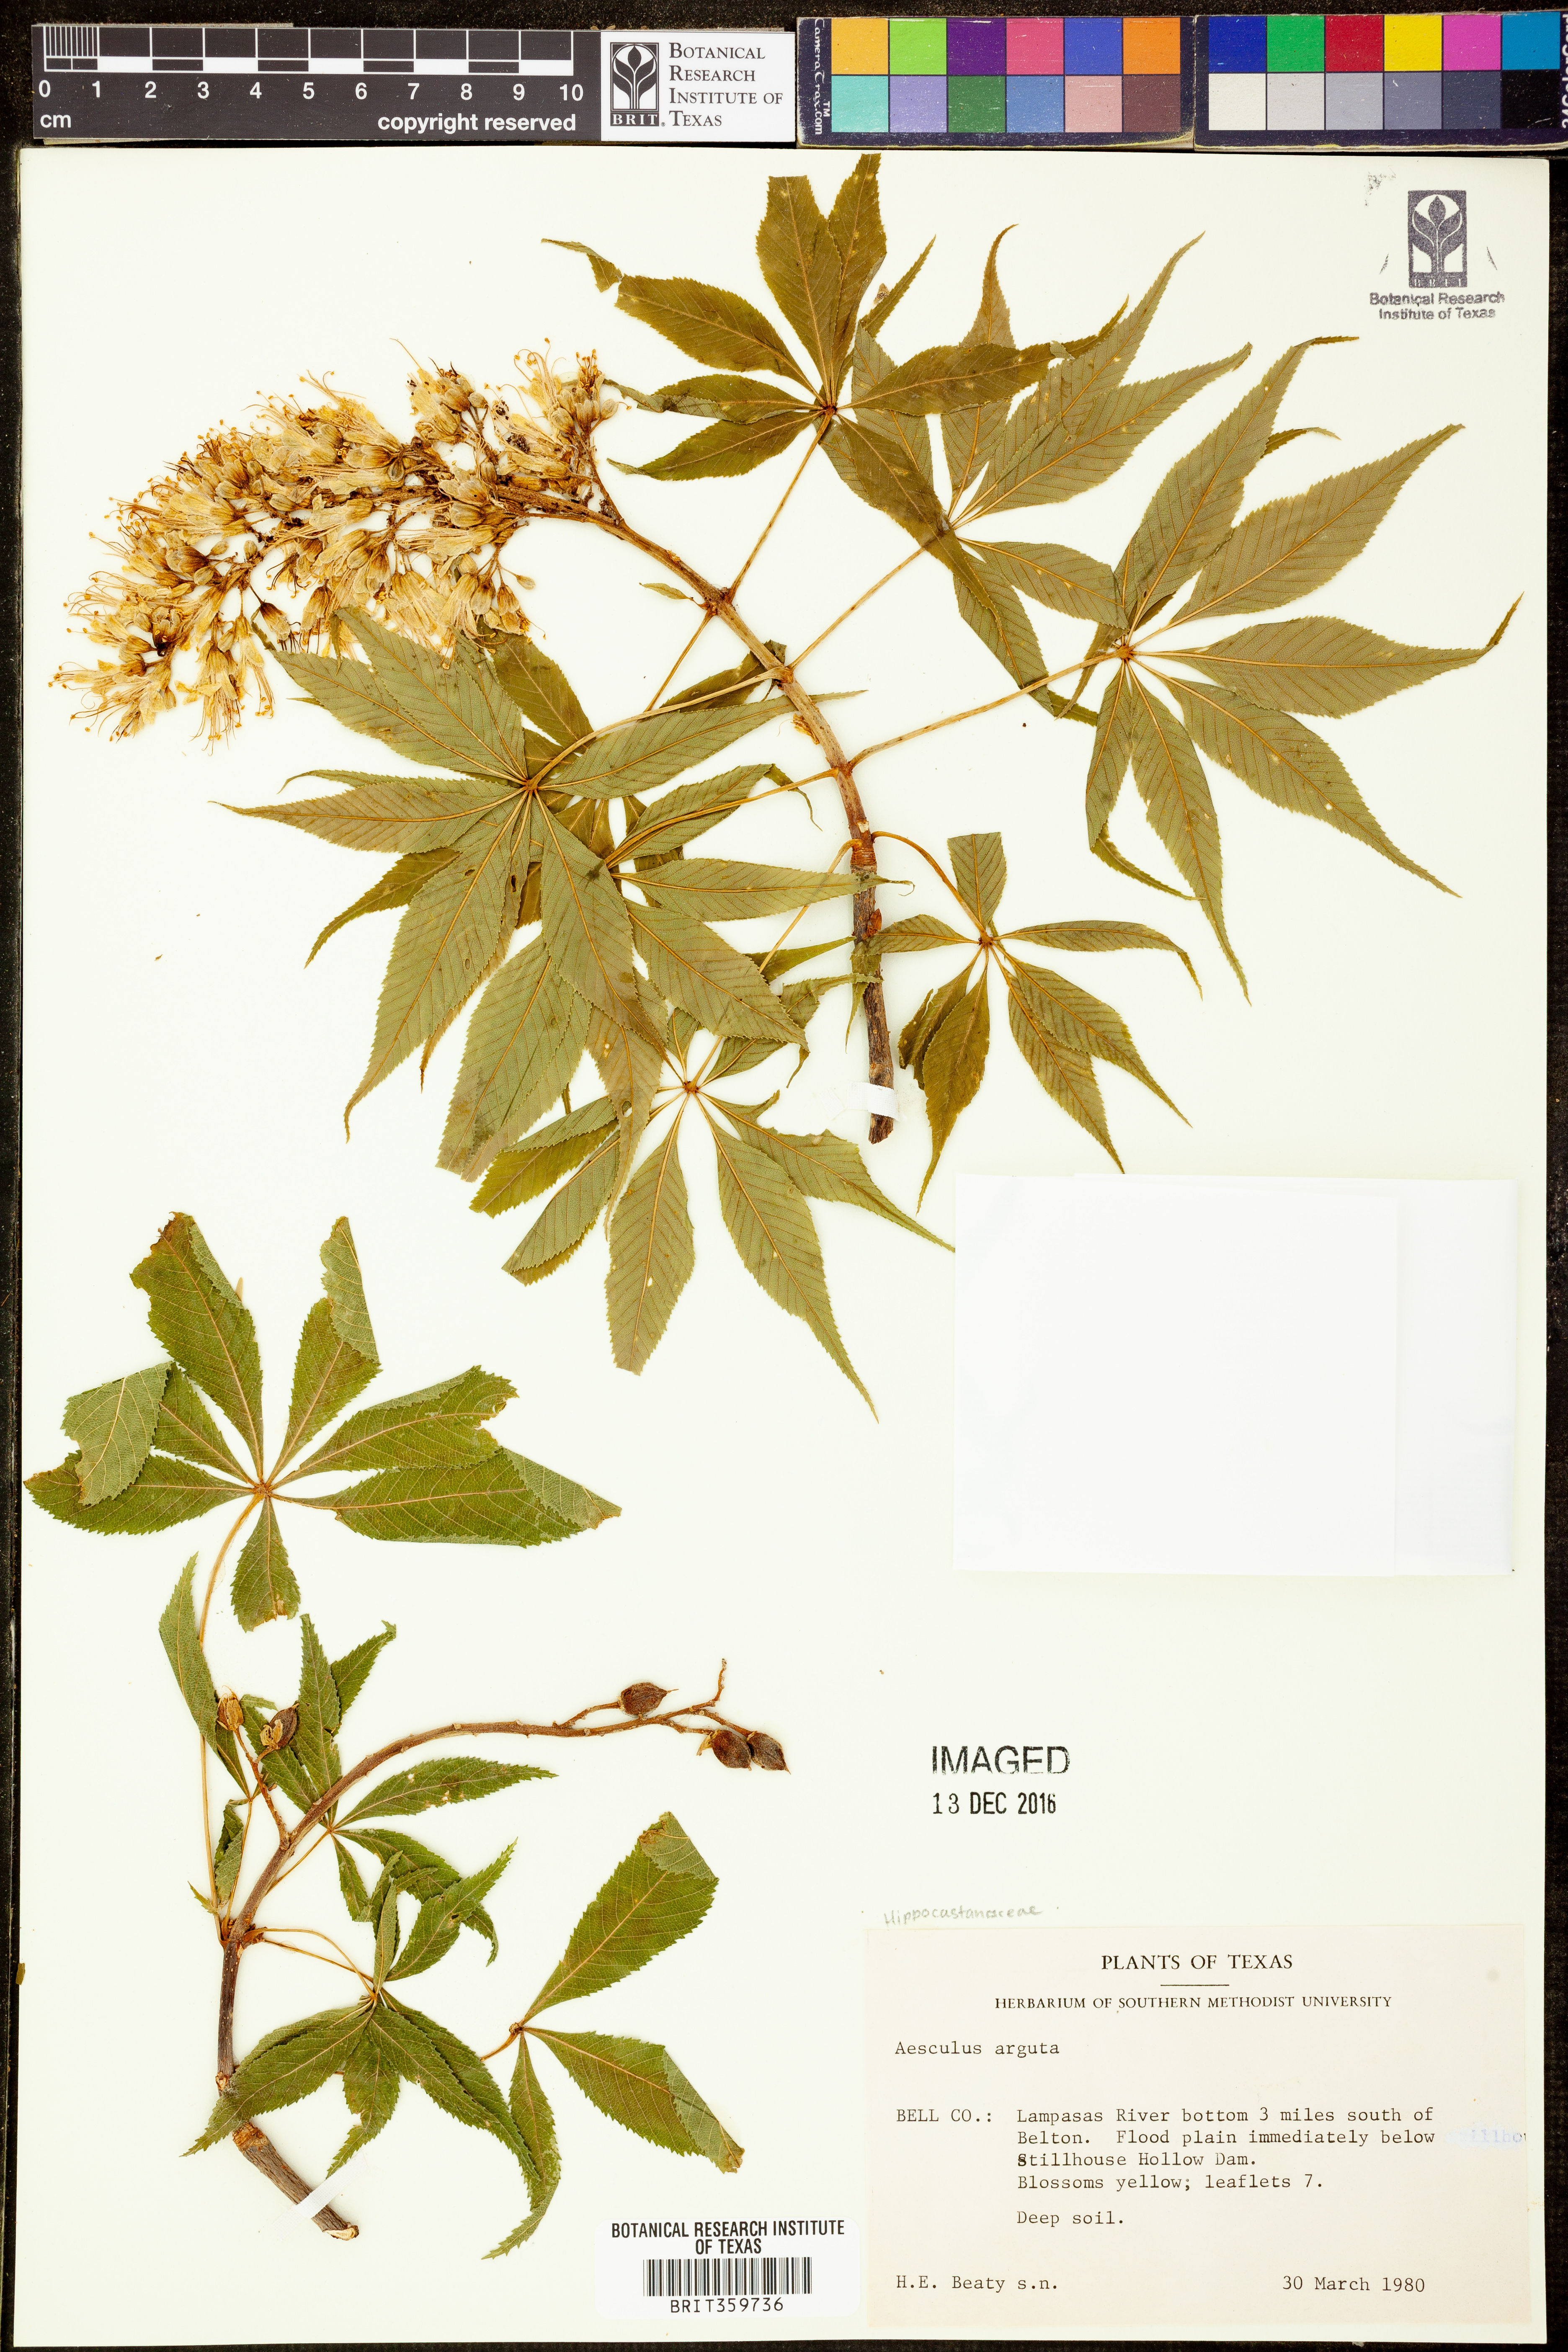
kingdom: Plantae
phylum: Tracheophyta
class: Magnoliopsida
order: Sapindales
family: Sapindaceae
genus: Aesculus
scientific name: Aesculus glabra
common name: Ohio buckeye
